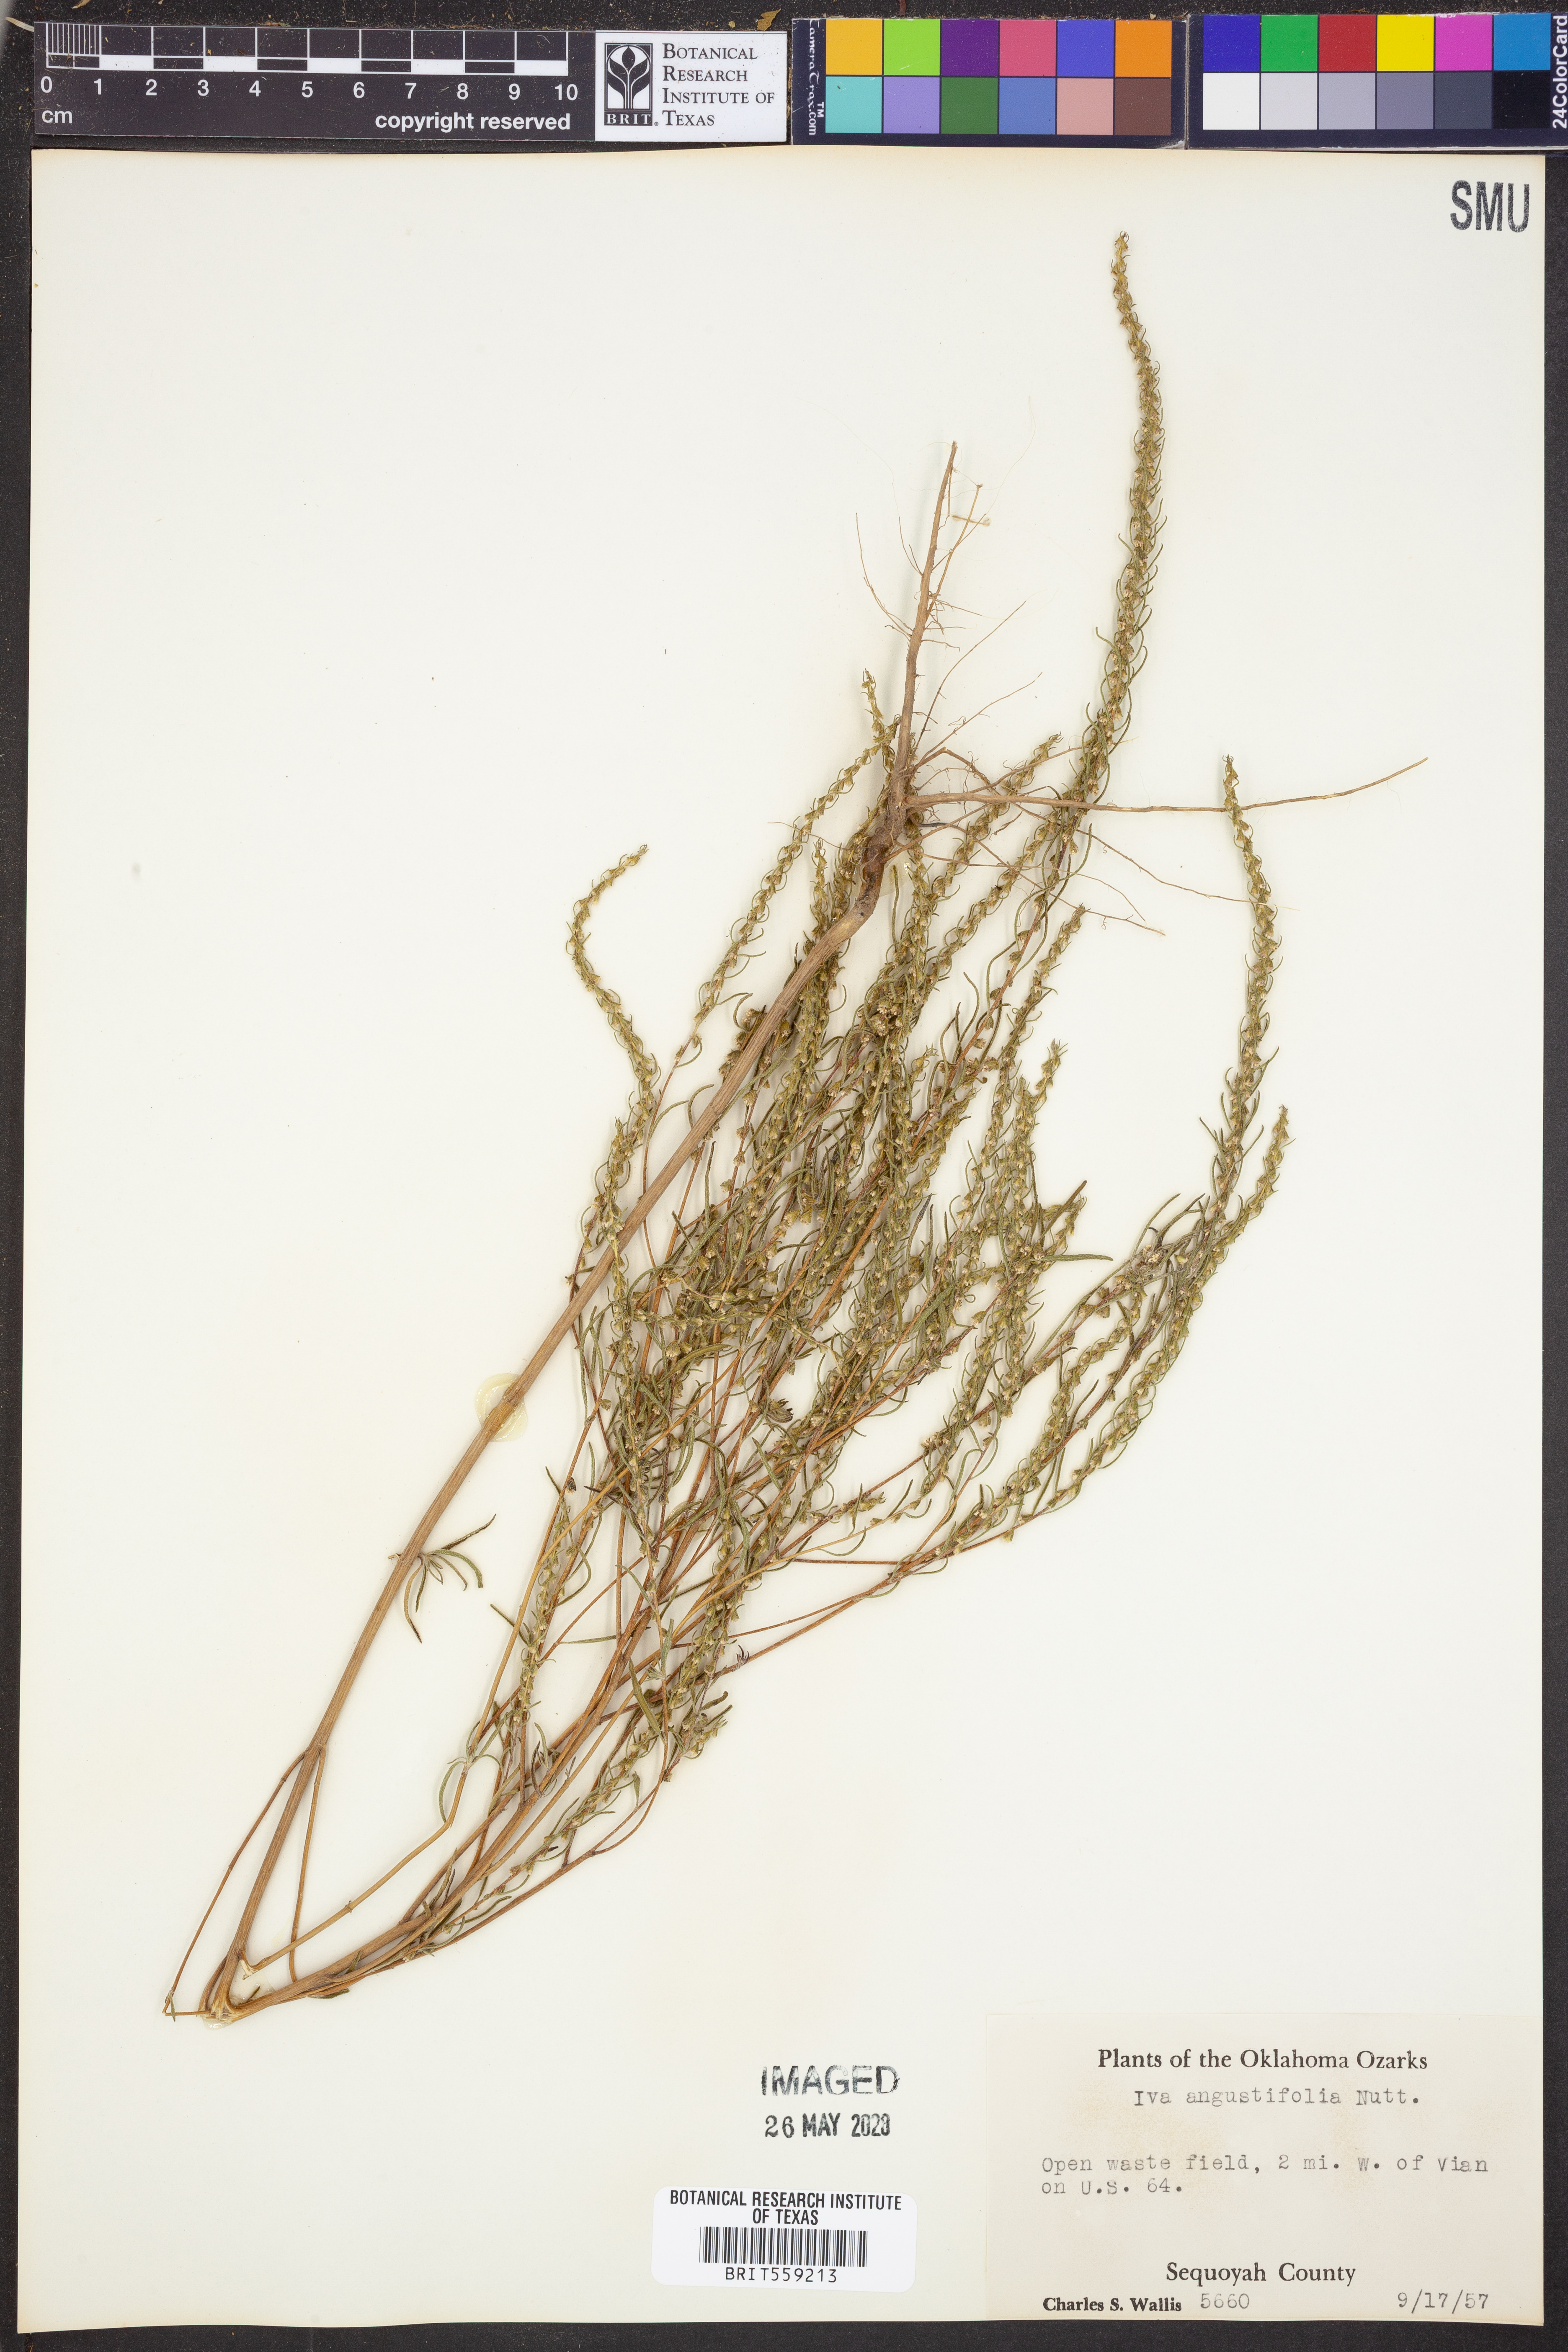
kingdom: Plantae
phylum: Tracheophyta
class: Magnoliopsida
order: Asterales
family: Asteraceae
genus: Iva
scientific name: Iva asperifolia
